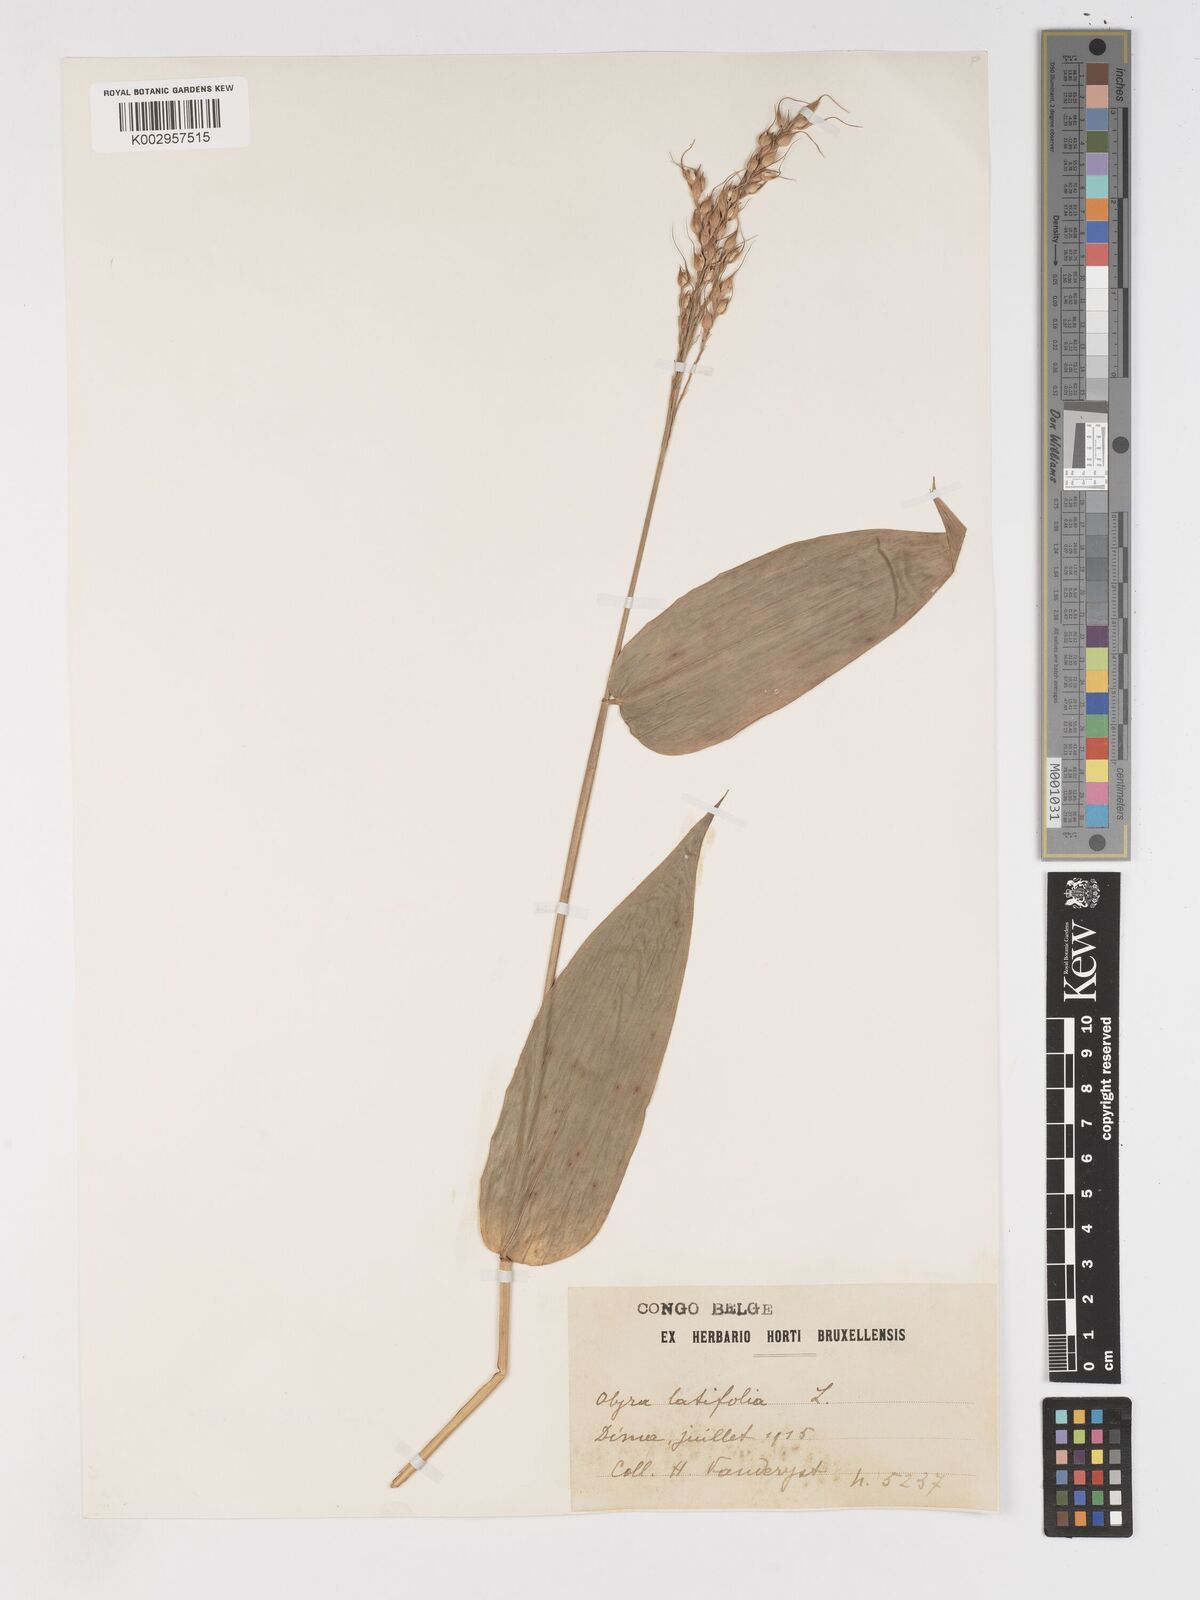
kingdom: Plantae
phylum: Tracheophyta
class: Liliopsida
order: Poales
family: Poaceae
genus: Olyra
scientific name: Olyra latifolia
